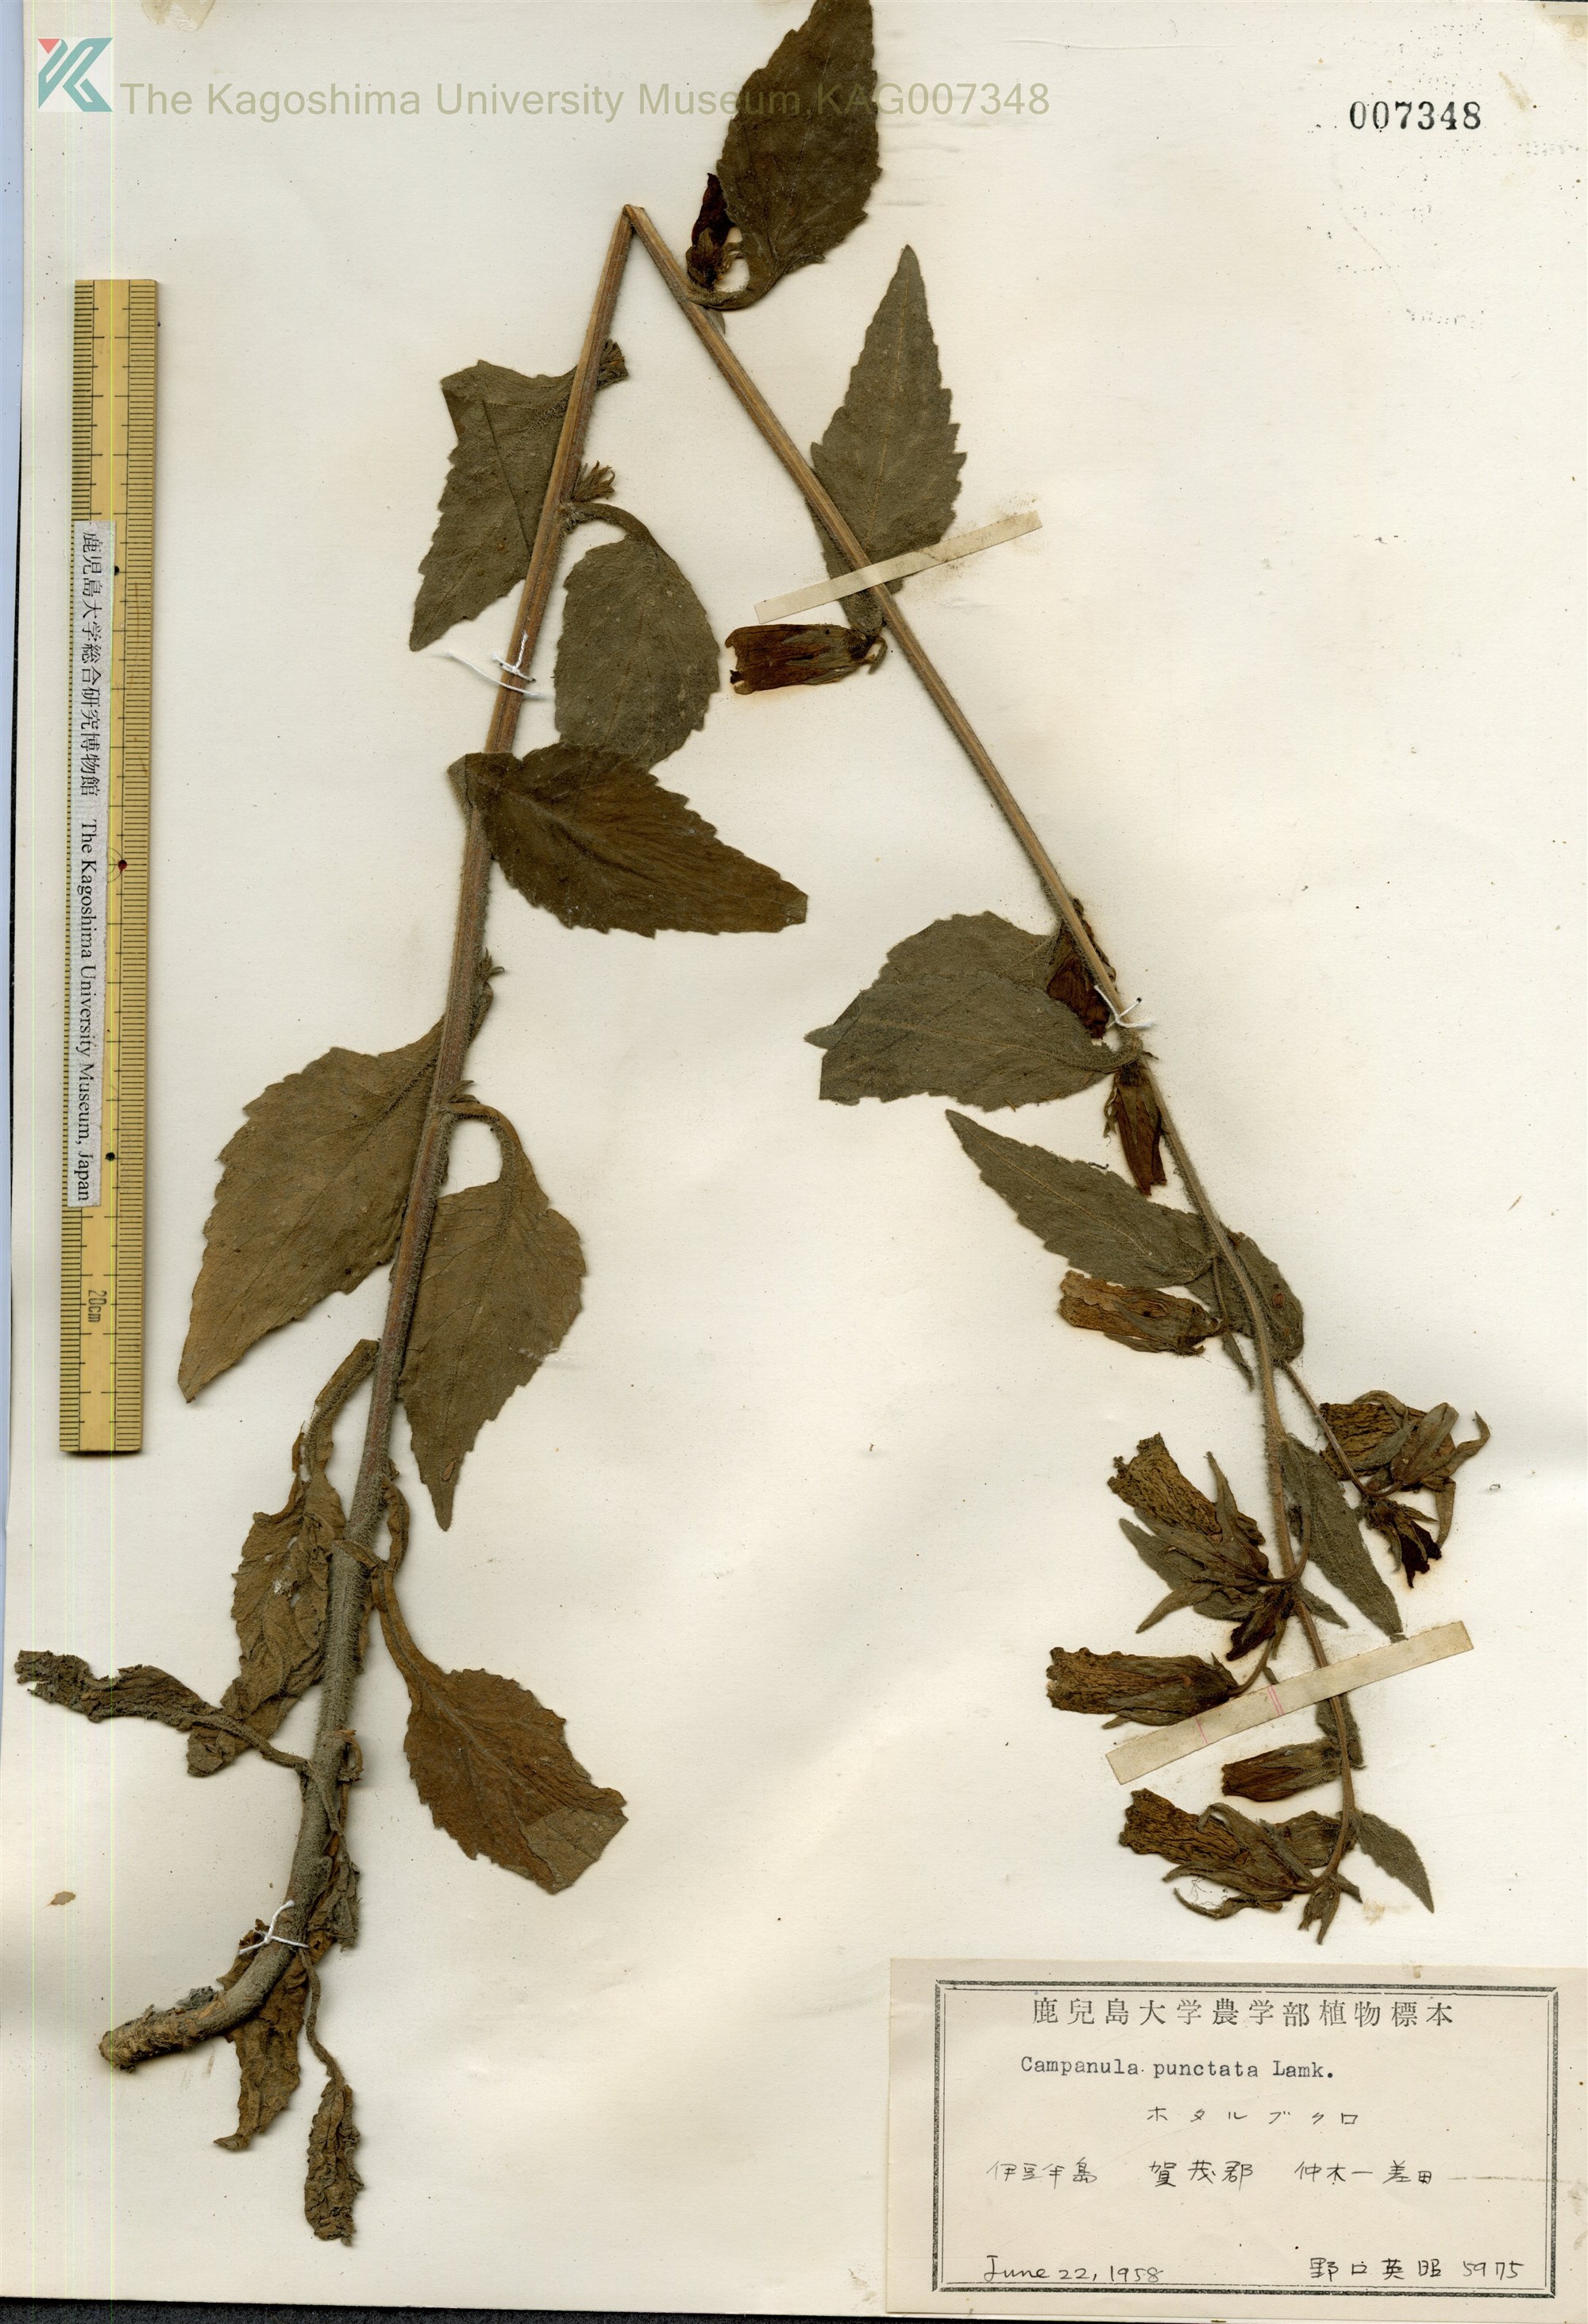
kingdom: Plantae
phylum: Tracheophyta
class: Magnoliopsida
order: Asterales
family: Campanulaceae
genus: Campanula
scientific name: Campanula punctata
